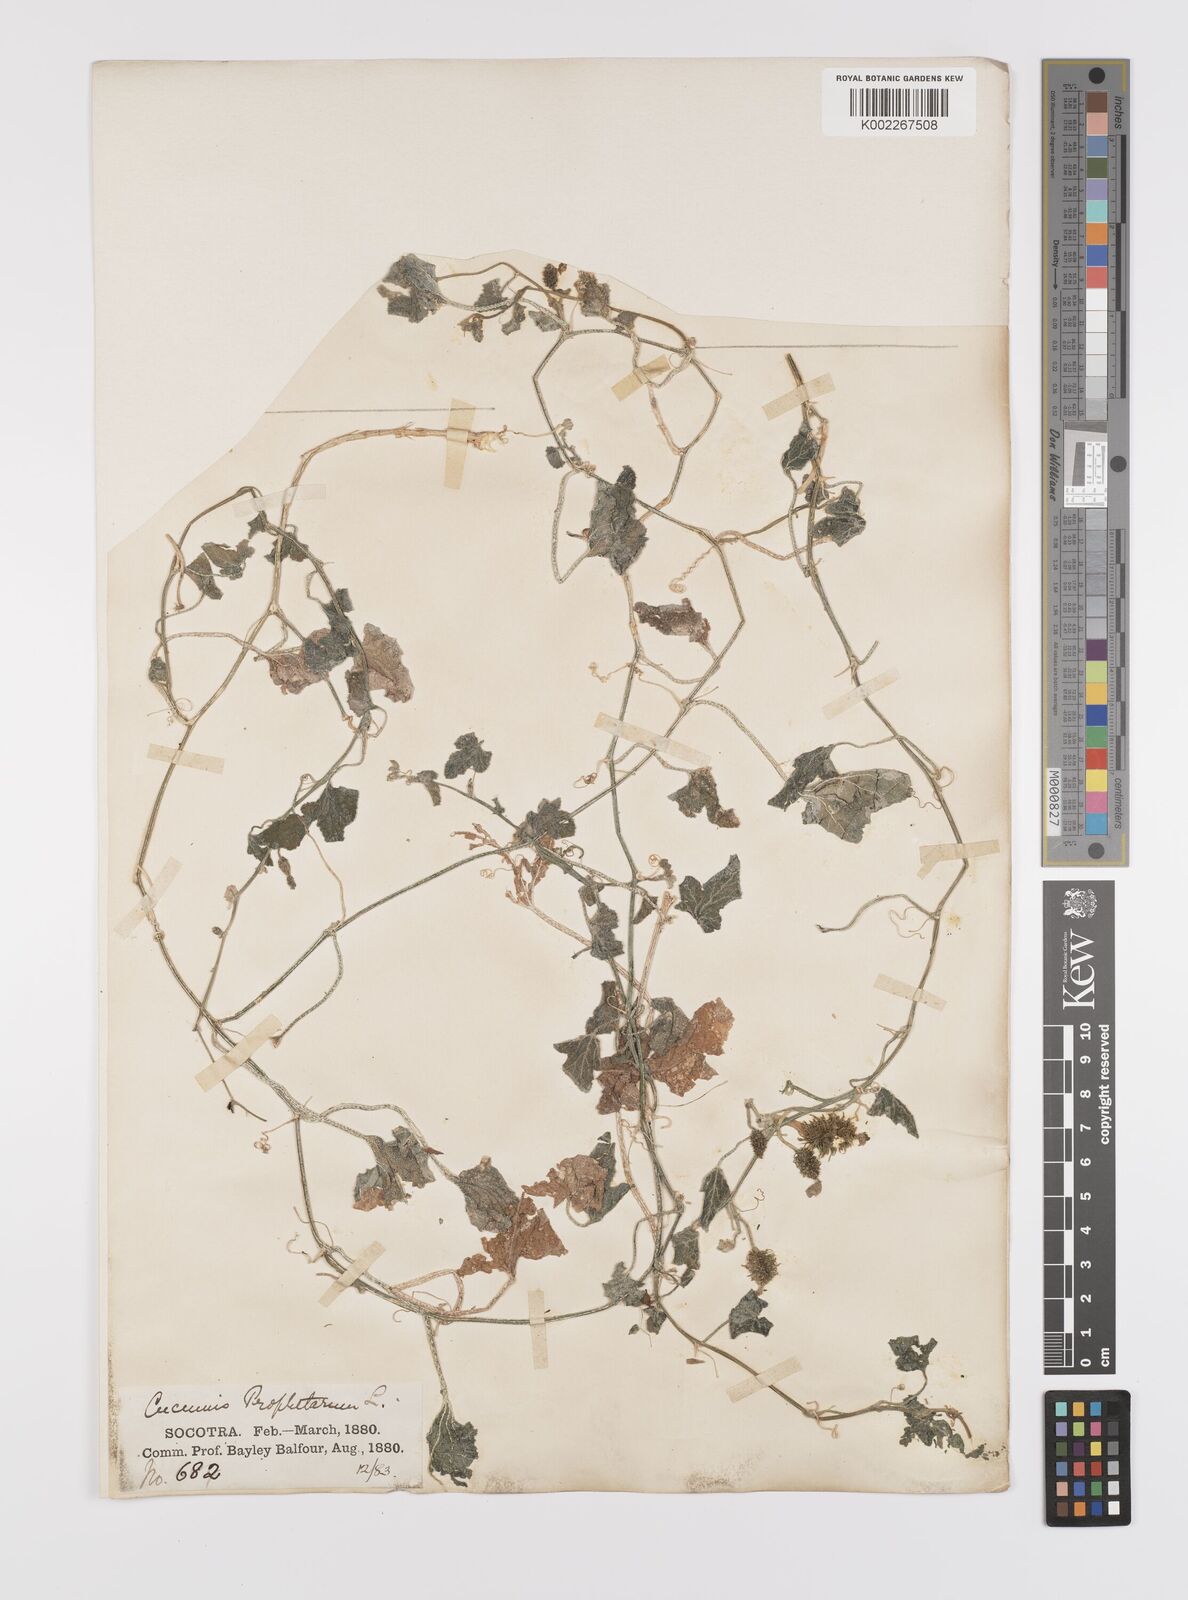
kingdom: Plantae
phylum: Tracheophyta
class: Magnoliopsida
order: Cucurbitales
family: Cucurbitaceae
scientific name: Cucurbitaceae
